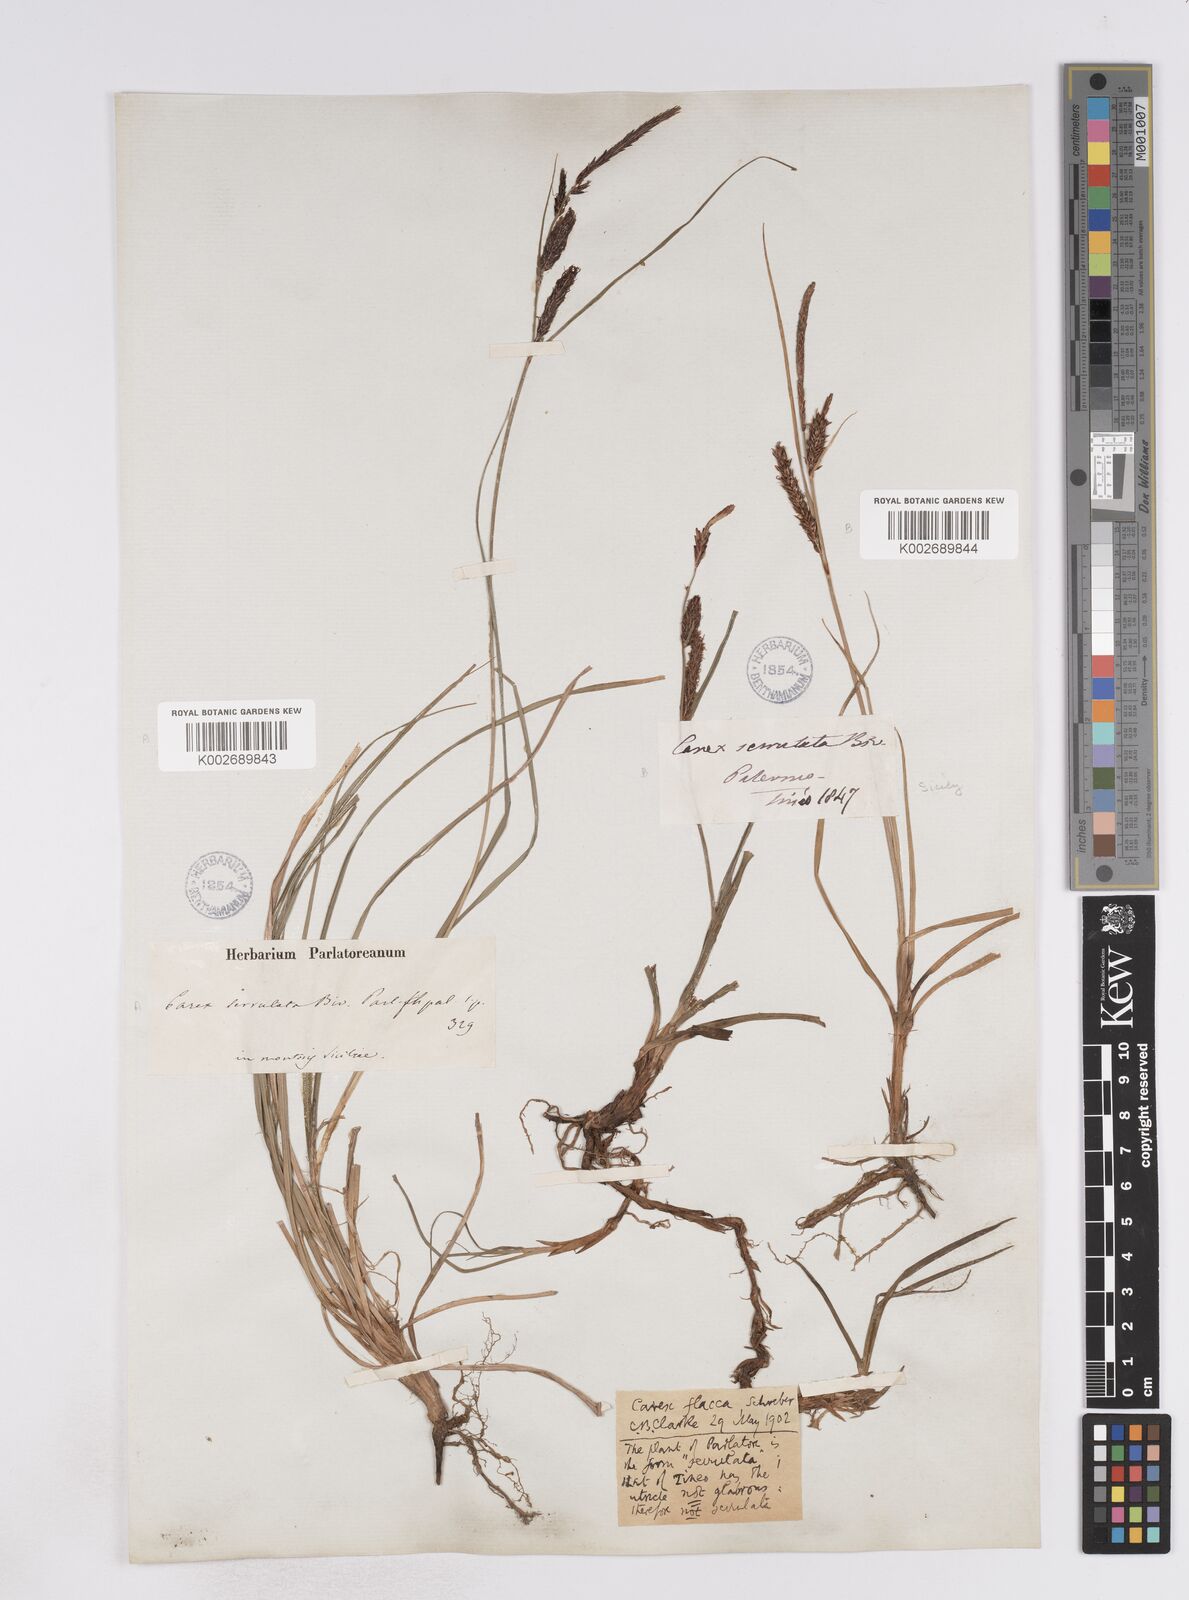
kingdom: Plantae
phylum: Tracheophyta
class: Liliopsida
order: Poales
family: Cyperaceae
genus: Carex
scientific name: Carex flacca
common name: Glaucous sedge
